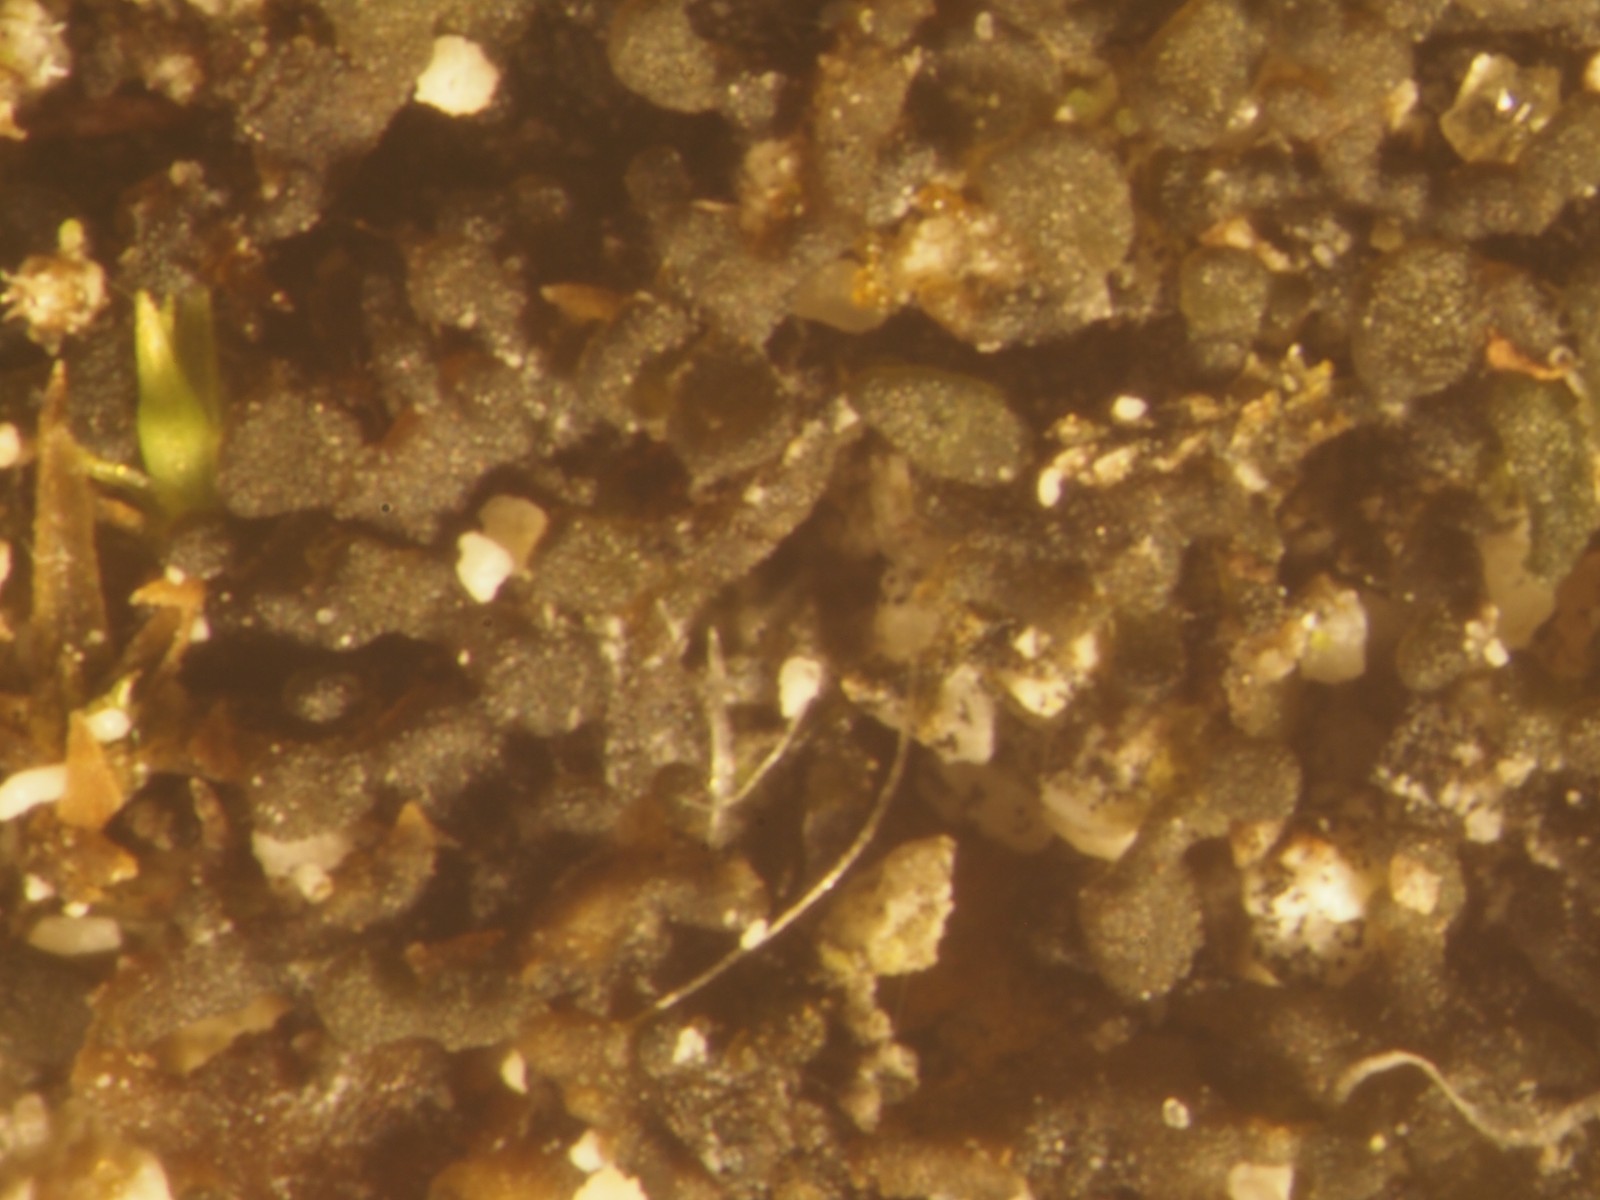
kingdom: Fungi
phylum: Ascomycota
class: Lecanoromycetes
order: Peltigerales
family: Collemataceae
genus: Blennothallia
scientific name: Blennothallia crispa
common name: kruset bævrelav
